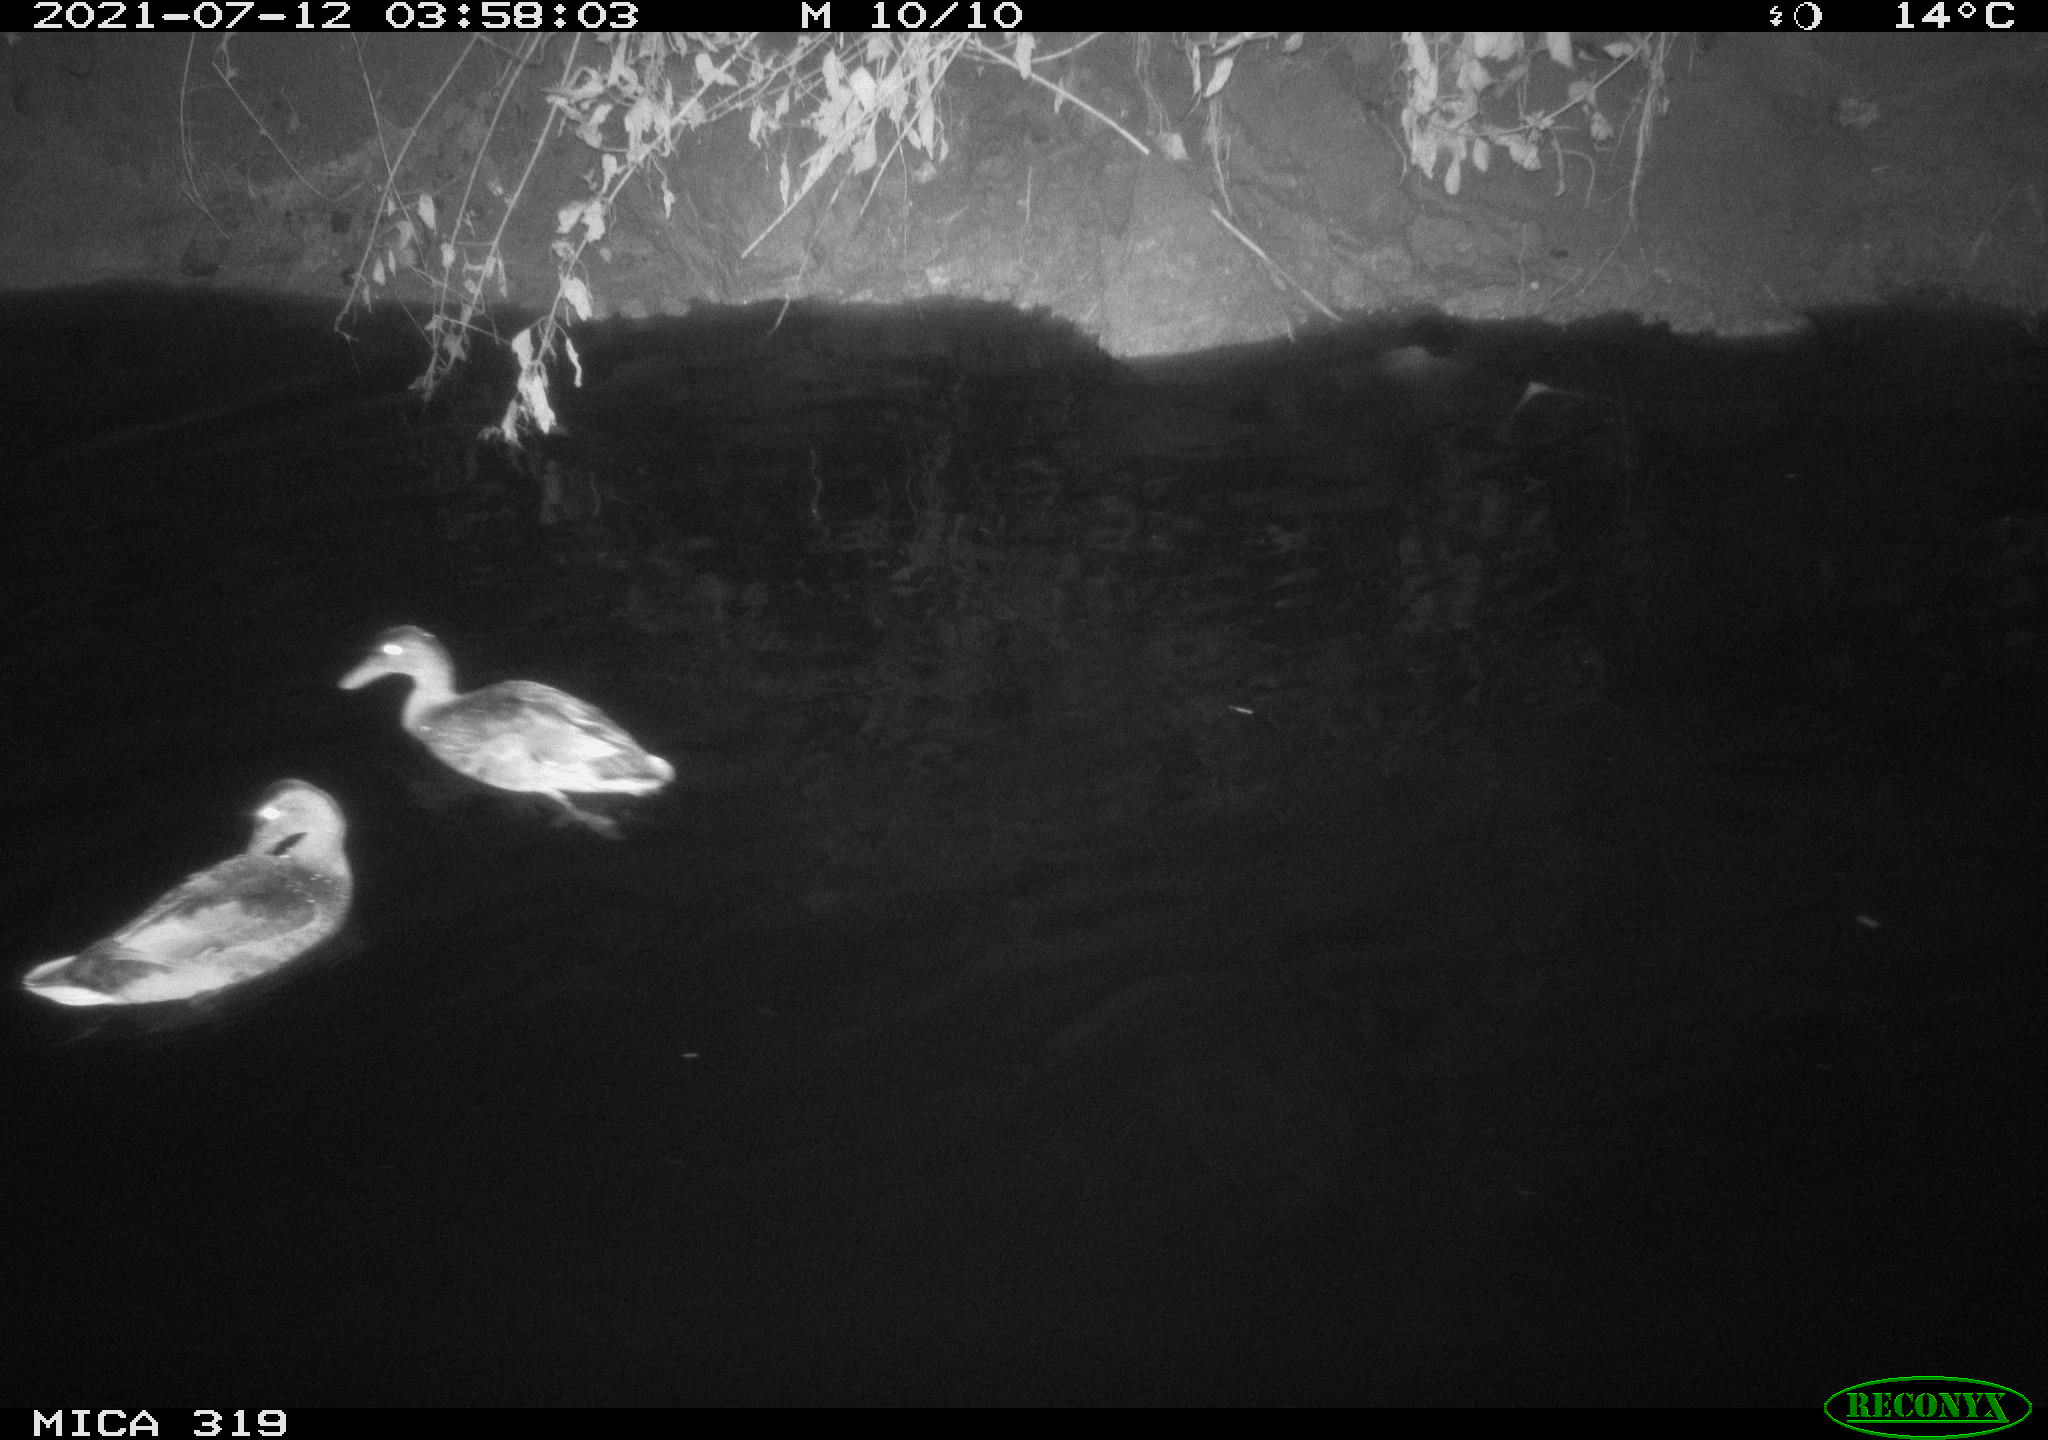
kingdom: Animalia
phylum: Chordata
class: Aves
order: Anseriformes
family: Anatidae
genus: Anas
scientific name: Anas platyrhynchos
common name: Mallard
